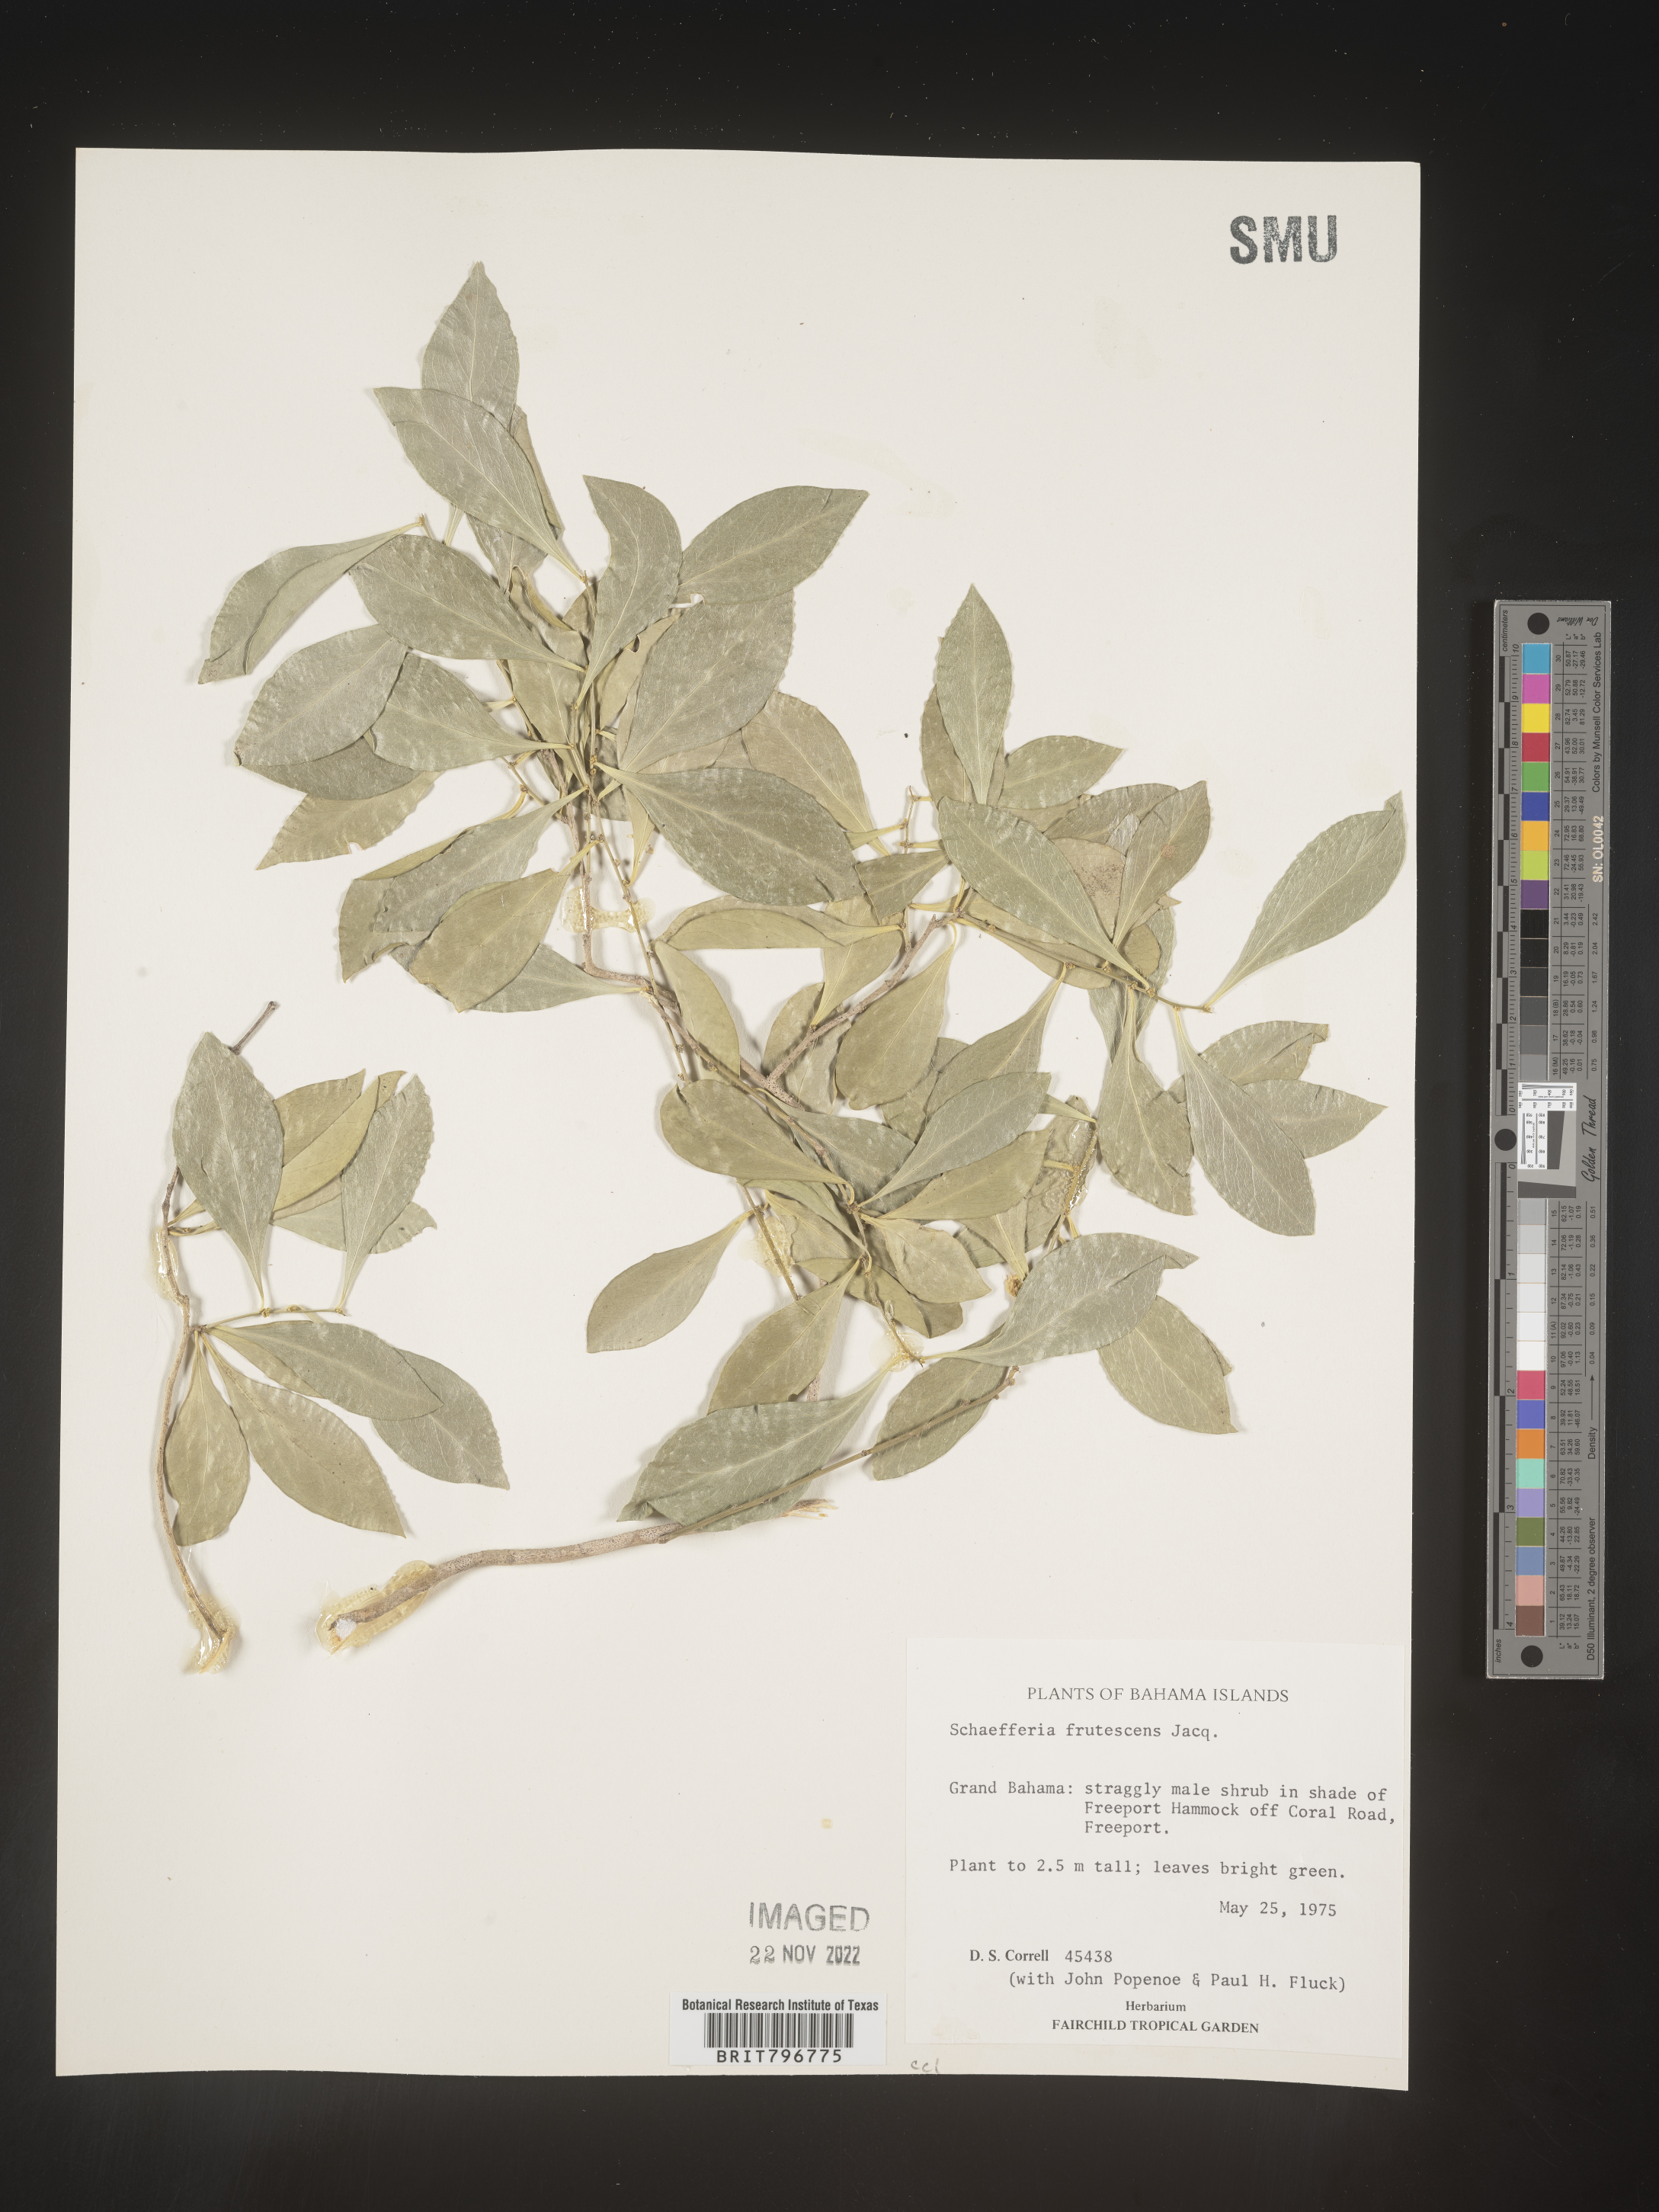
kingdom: Plantae
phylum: Tracheophyta
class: Magnoliopsida
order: Celastrales
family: Celastraceae
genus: Schaefferia
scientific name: Schaefferia
